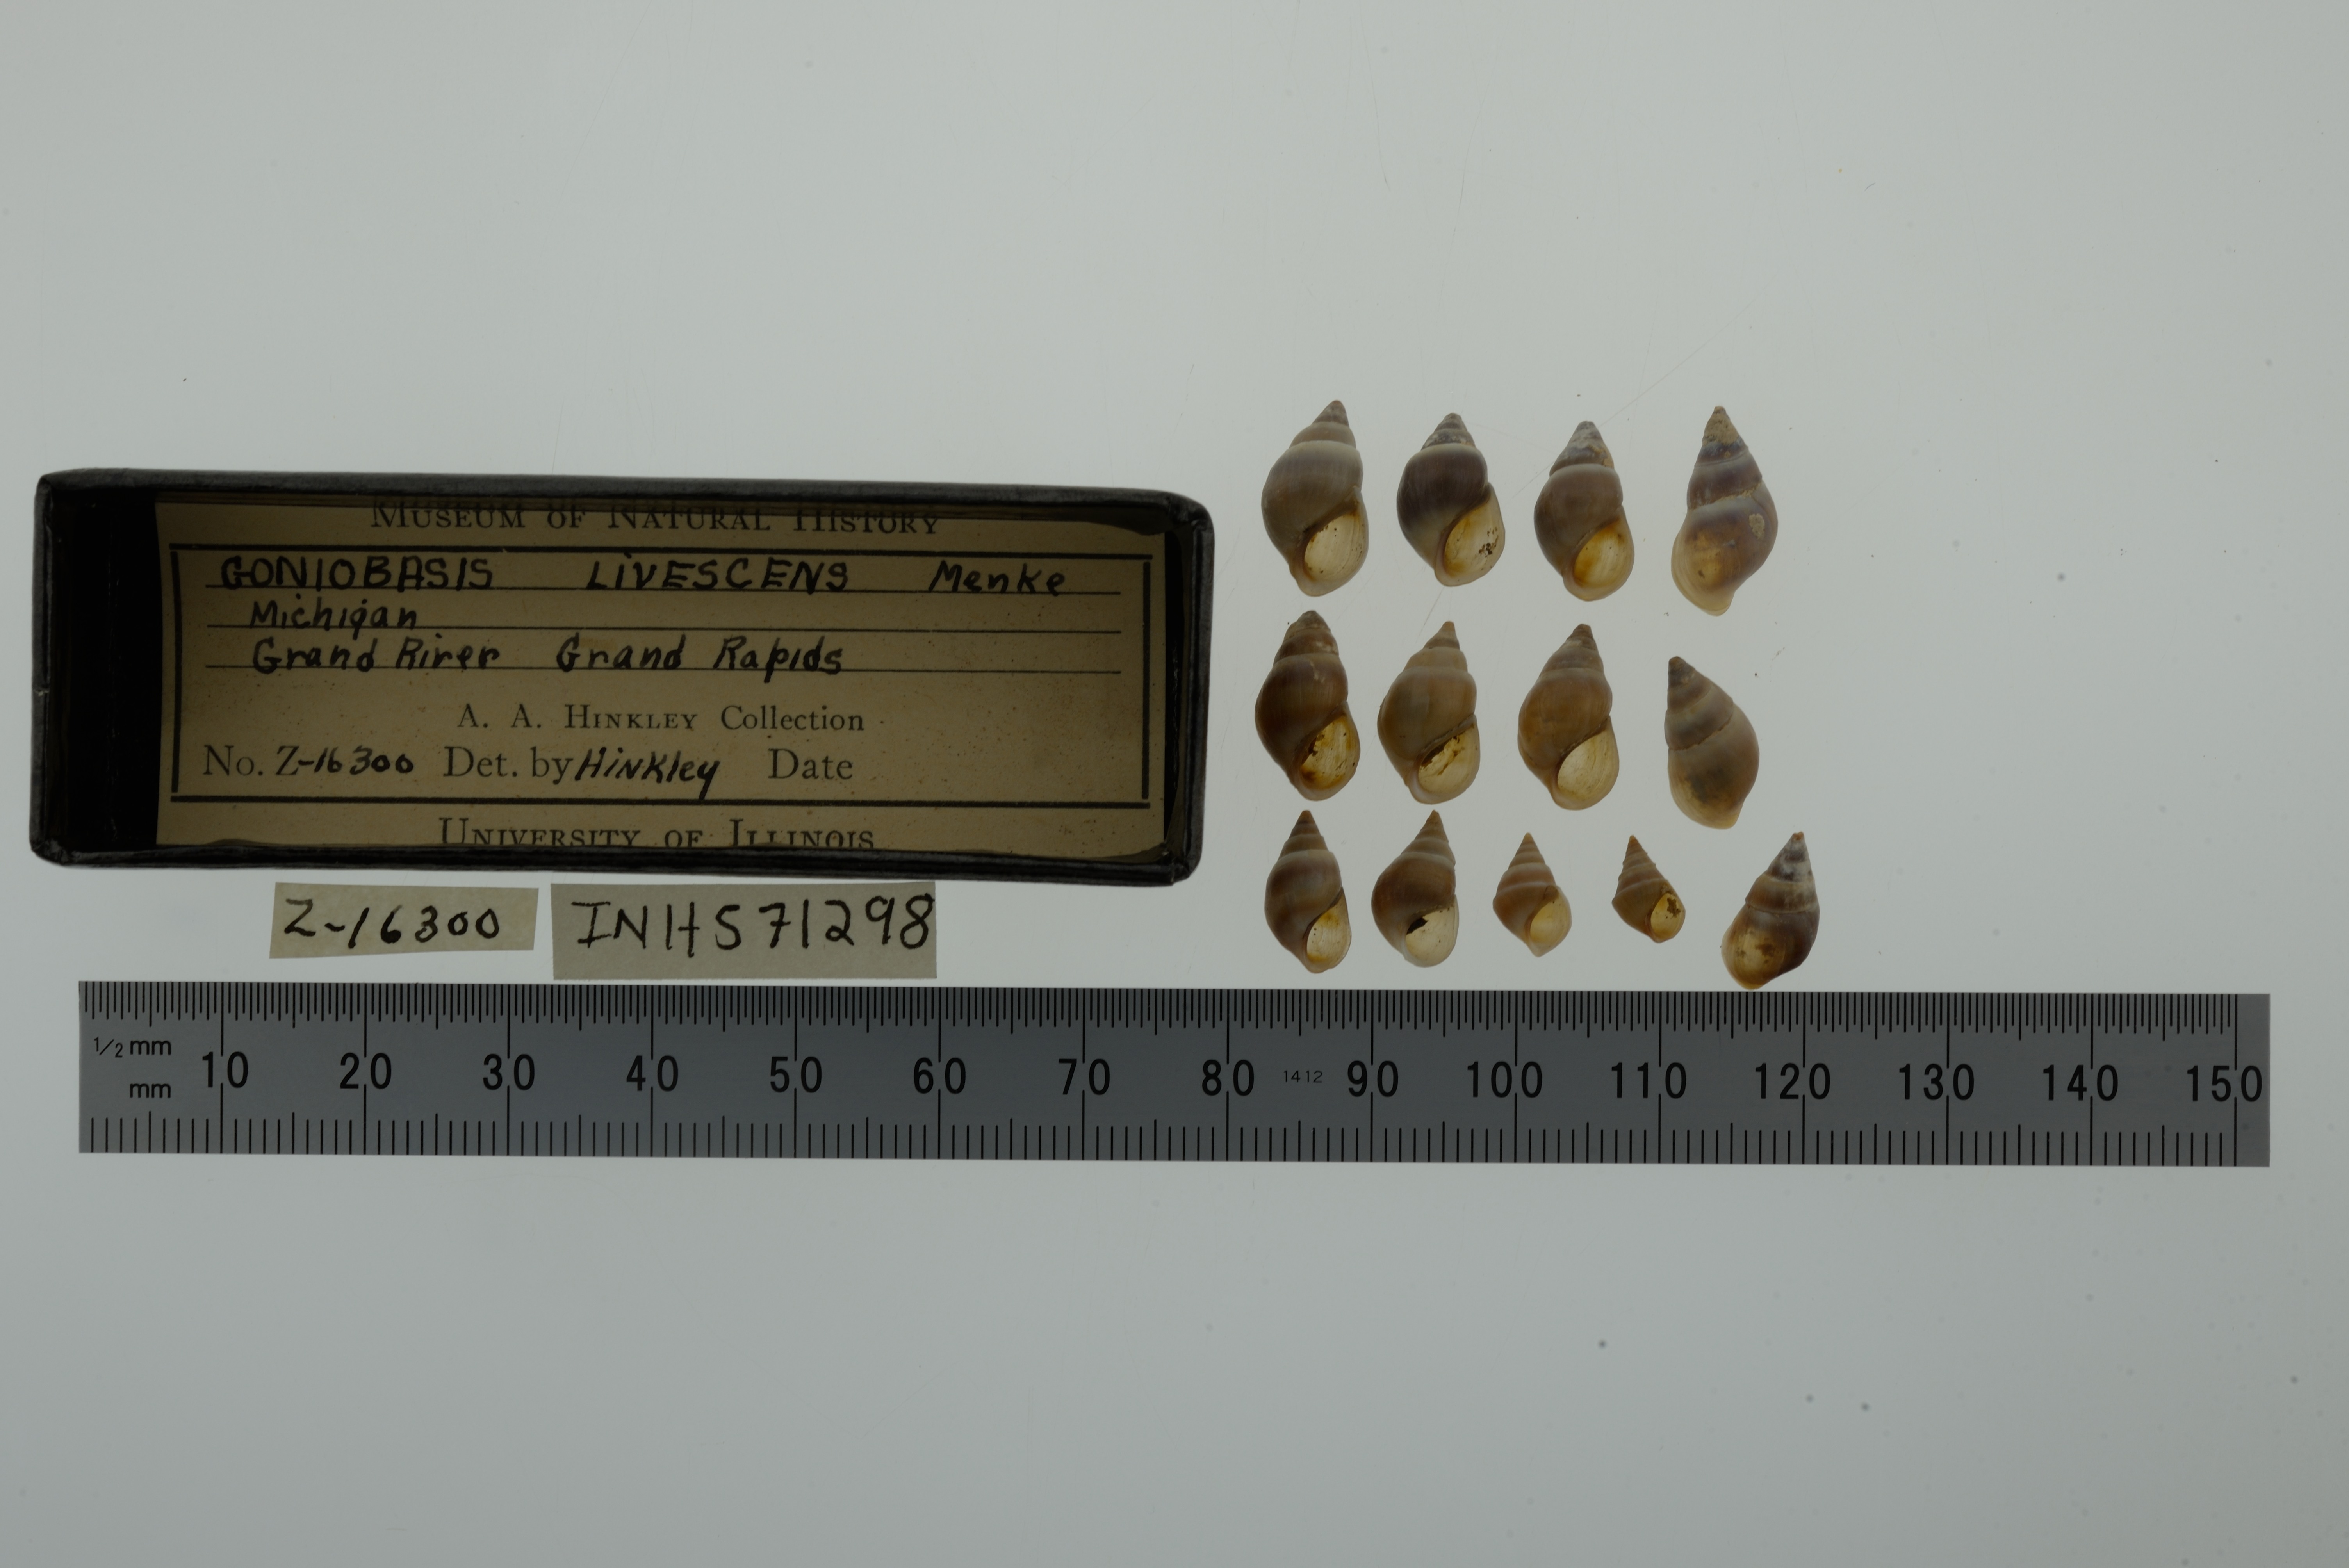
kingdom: Animalia
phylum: Mollusca
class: Gastropoda
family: Pleuroceridae
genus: Elimia
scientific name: Elimia livescens
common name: Liver elimia
